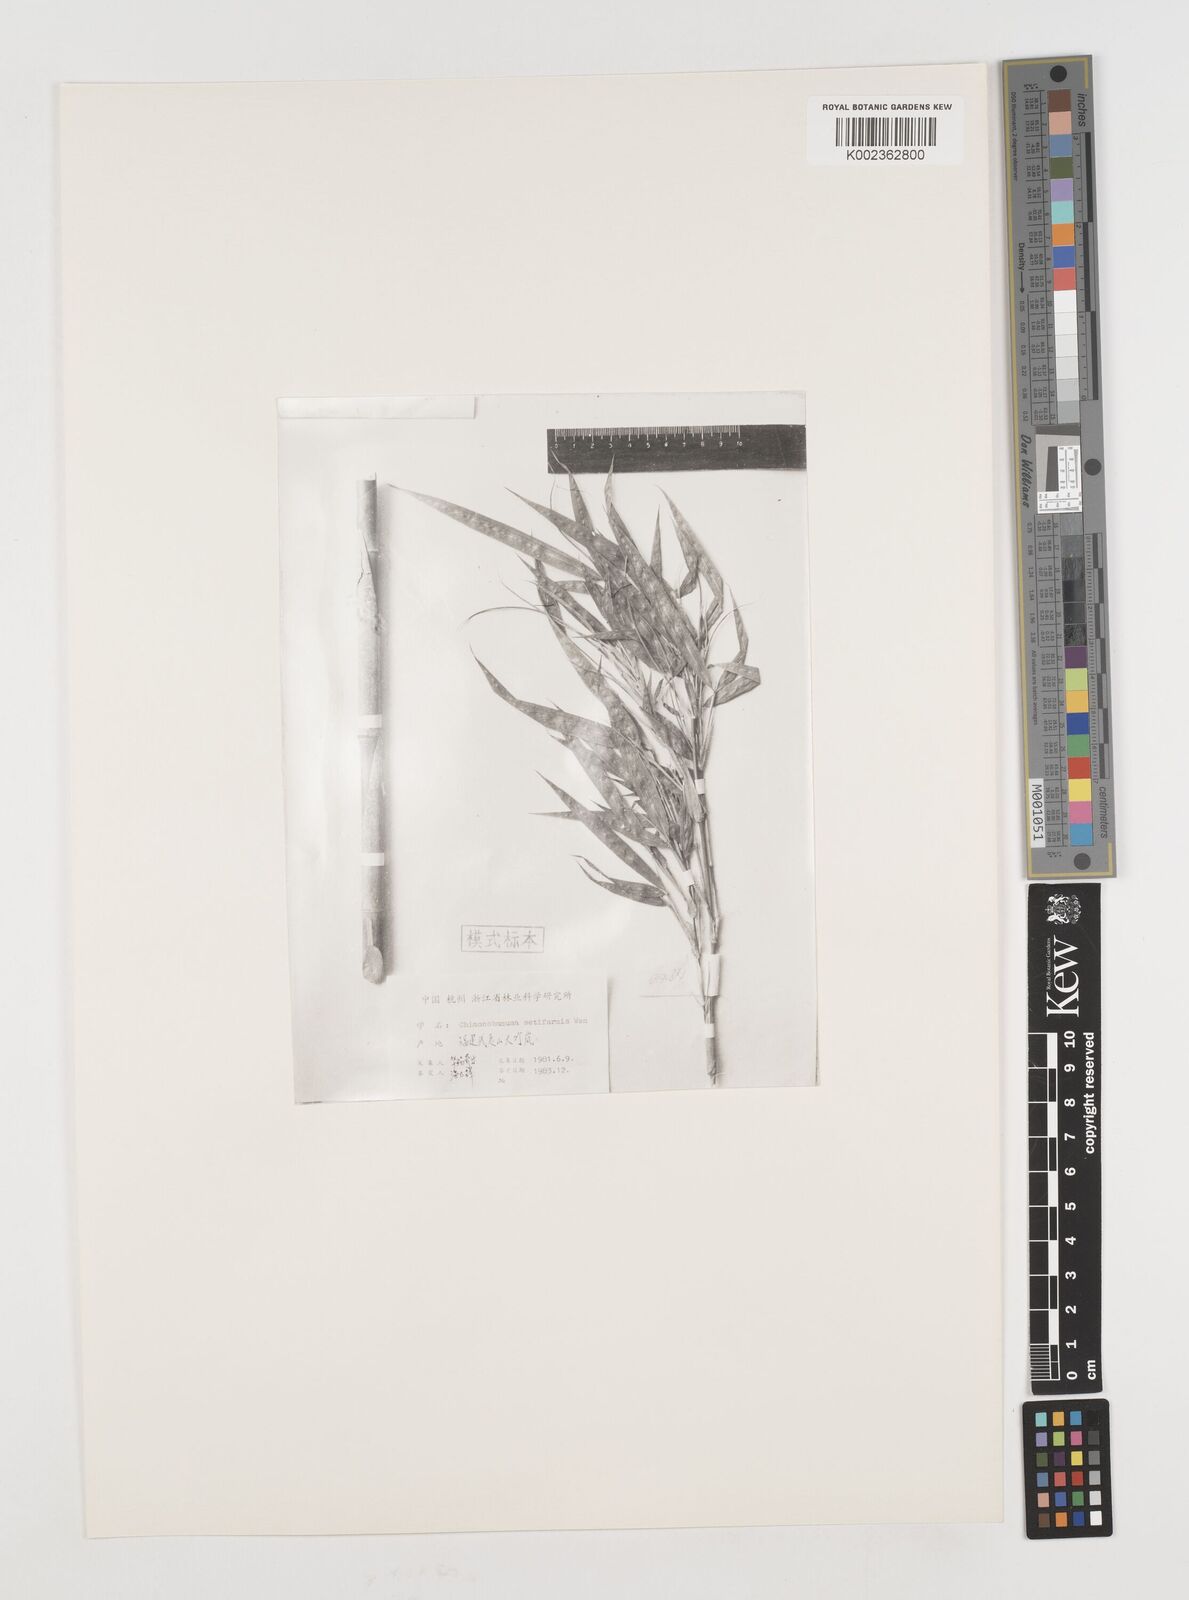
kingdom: Plantae
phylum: Tracheophyta
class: Liliopsida
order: Poales
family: Poaceae
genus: Chimonobambusa
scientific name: Chimonobambusa marmorea
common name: Marbled bamboo
